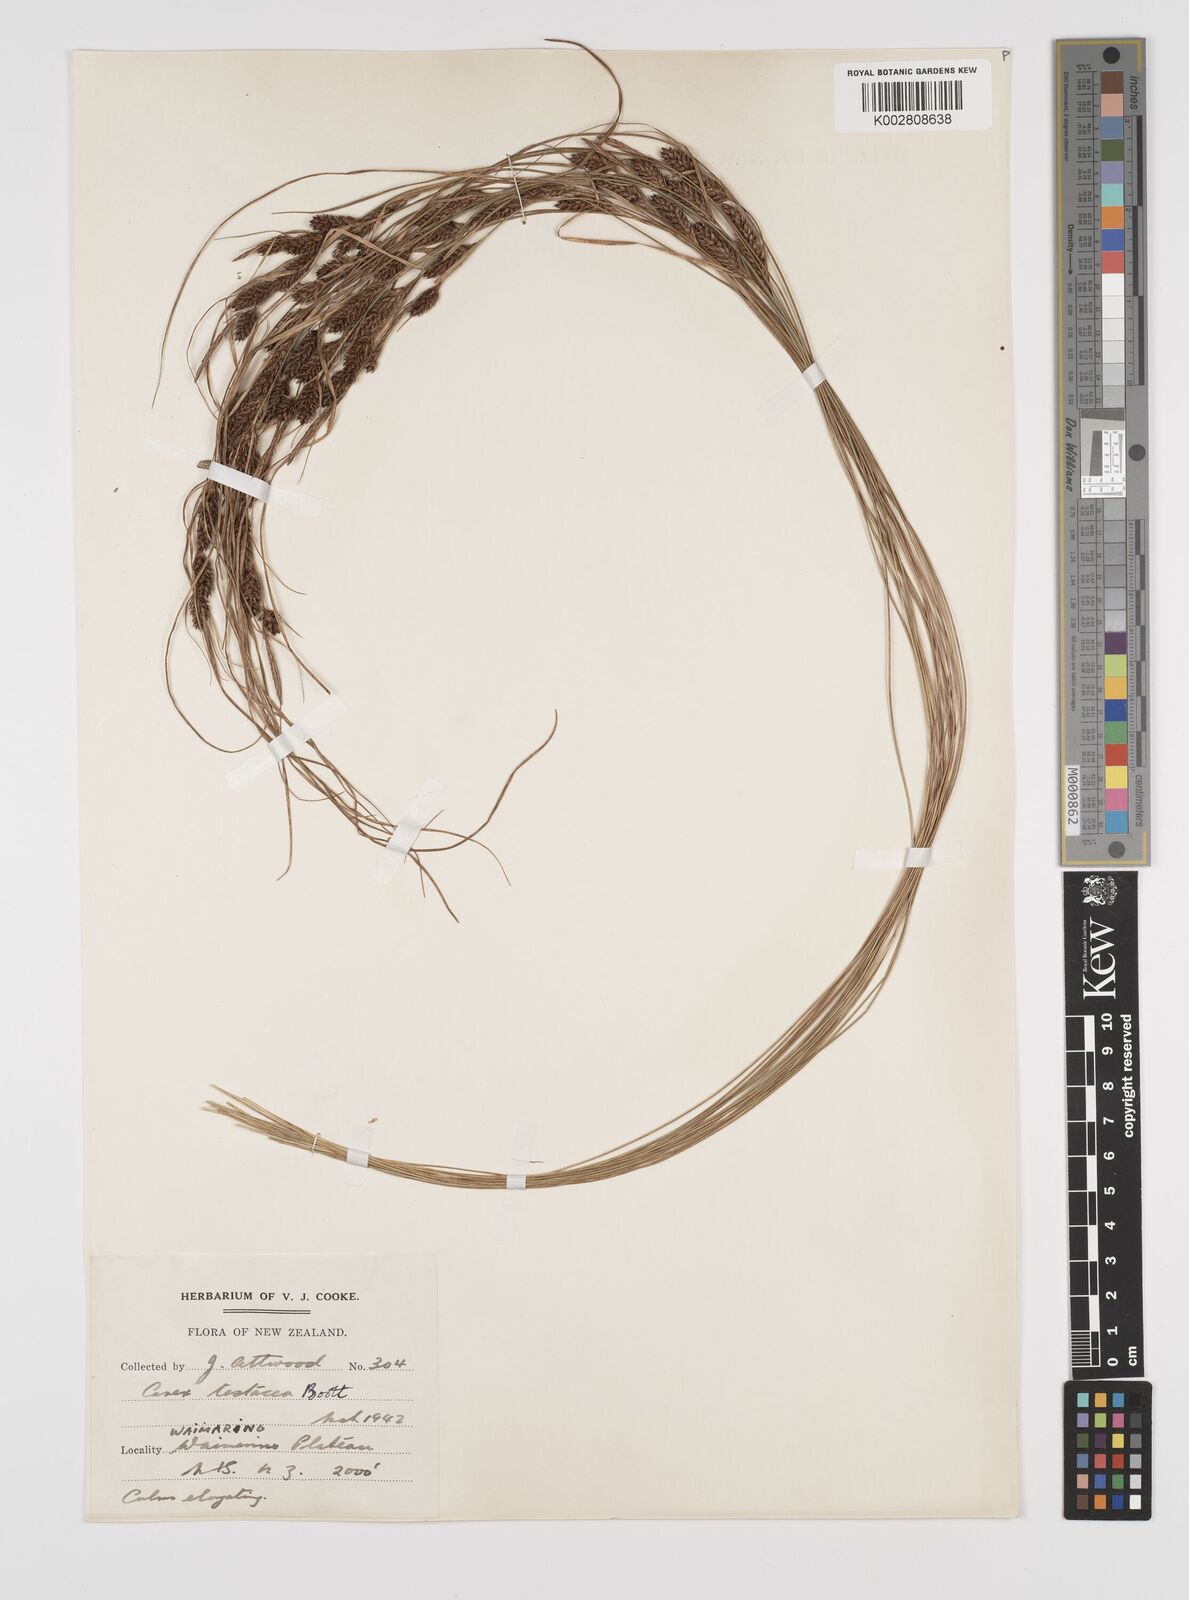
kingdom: Plantae
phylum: Tracheophyta
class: Liliopsida
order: Poales
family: Cyperaceae
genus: Carex
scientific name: Carex testacea
